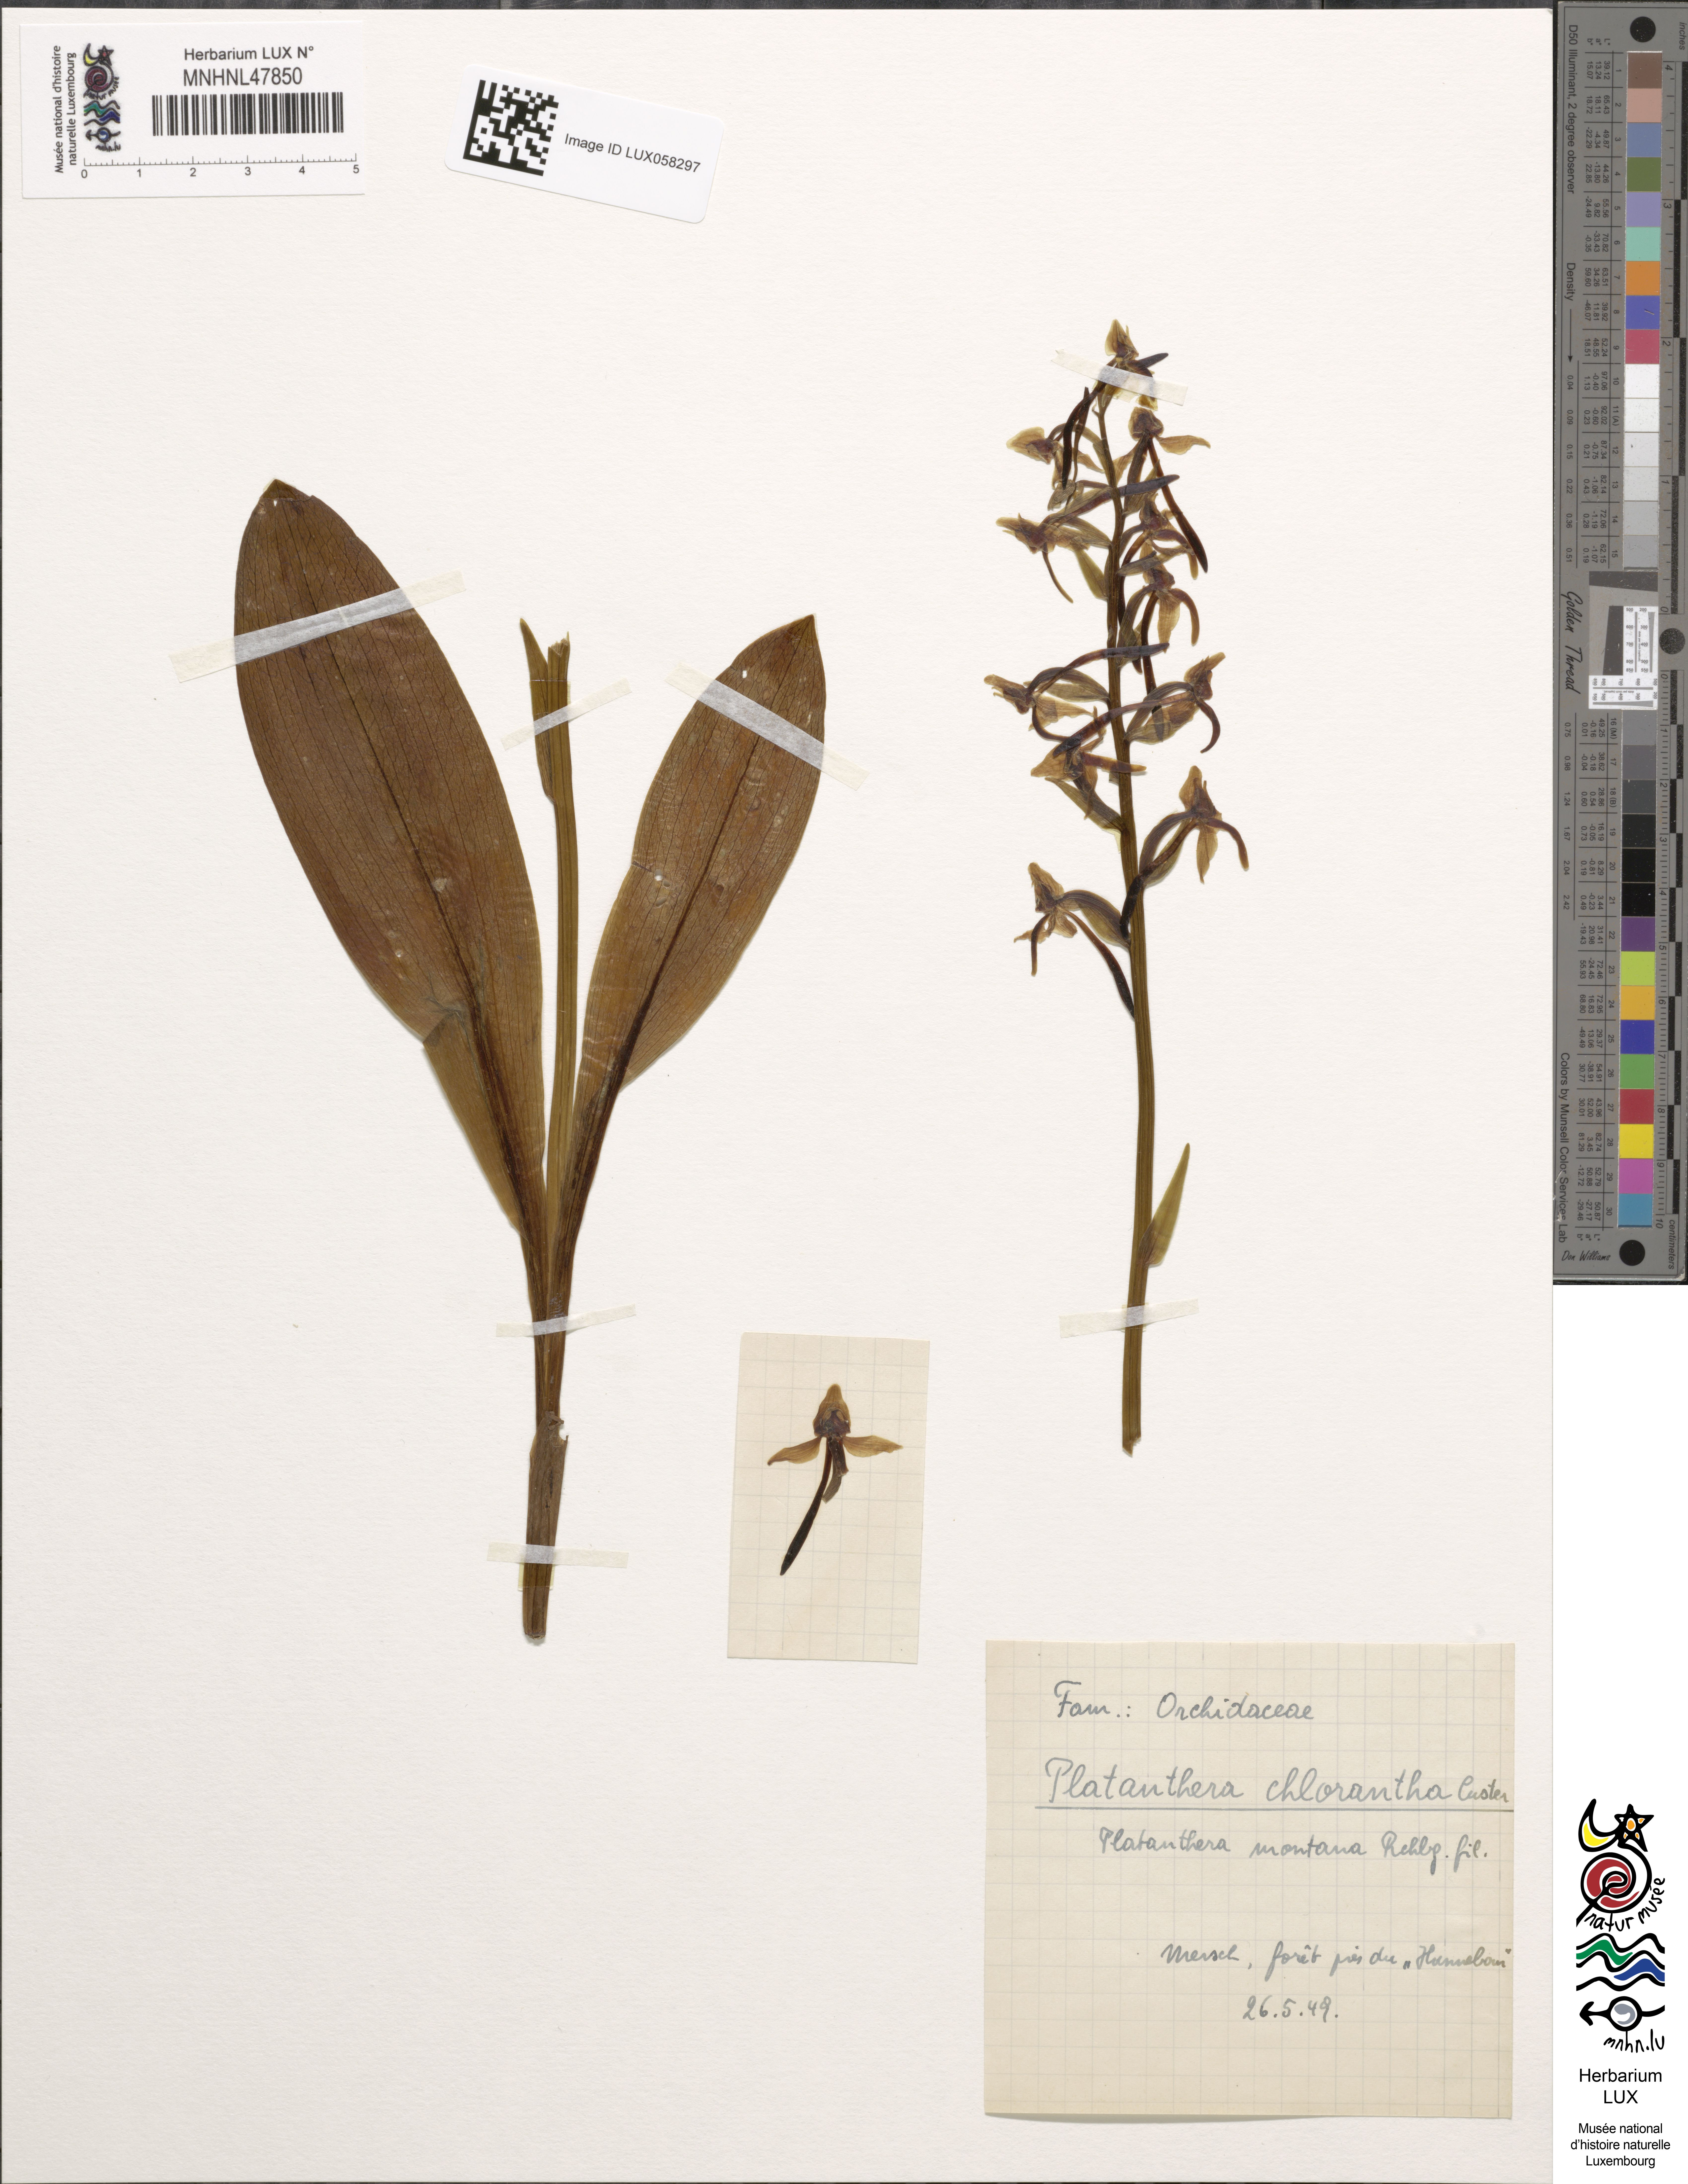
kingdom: Plantae
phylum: Tracheophyta
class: Liliopsida
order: Asparagales
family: Orchidaceae
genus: Platanthera
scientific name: Platanthera chlorantha
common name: Greater butterfly-orchid
